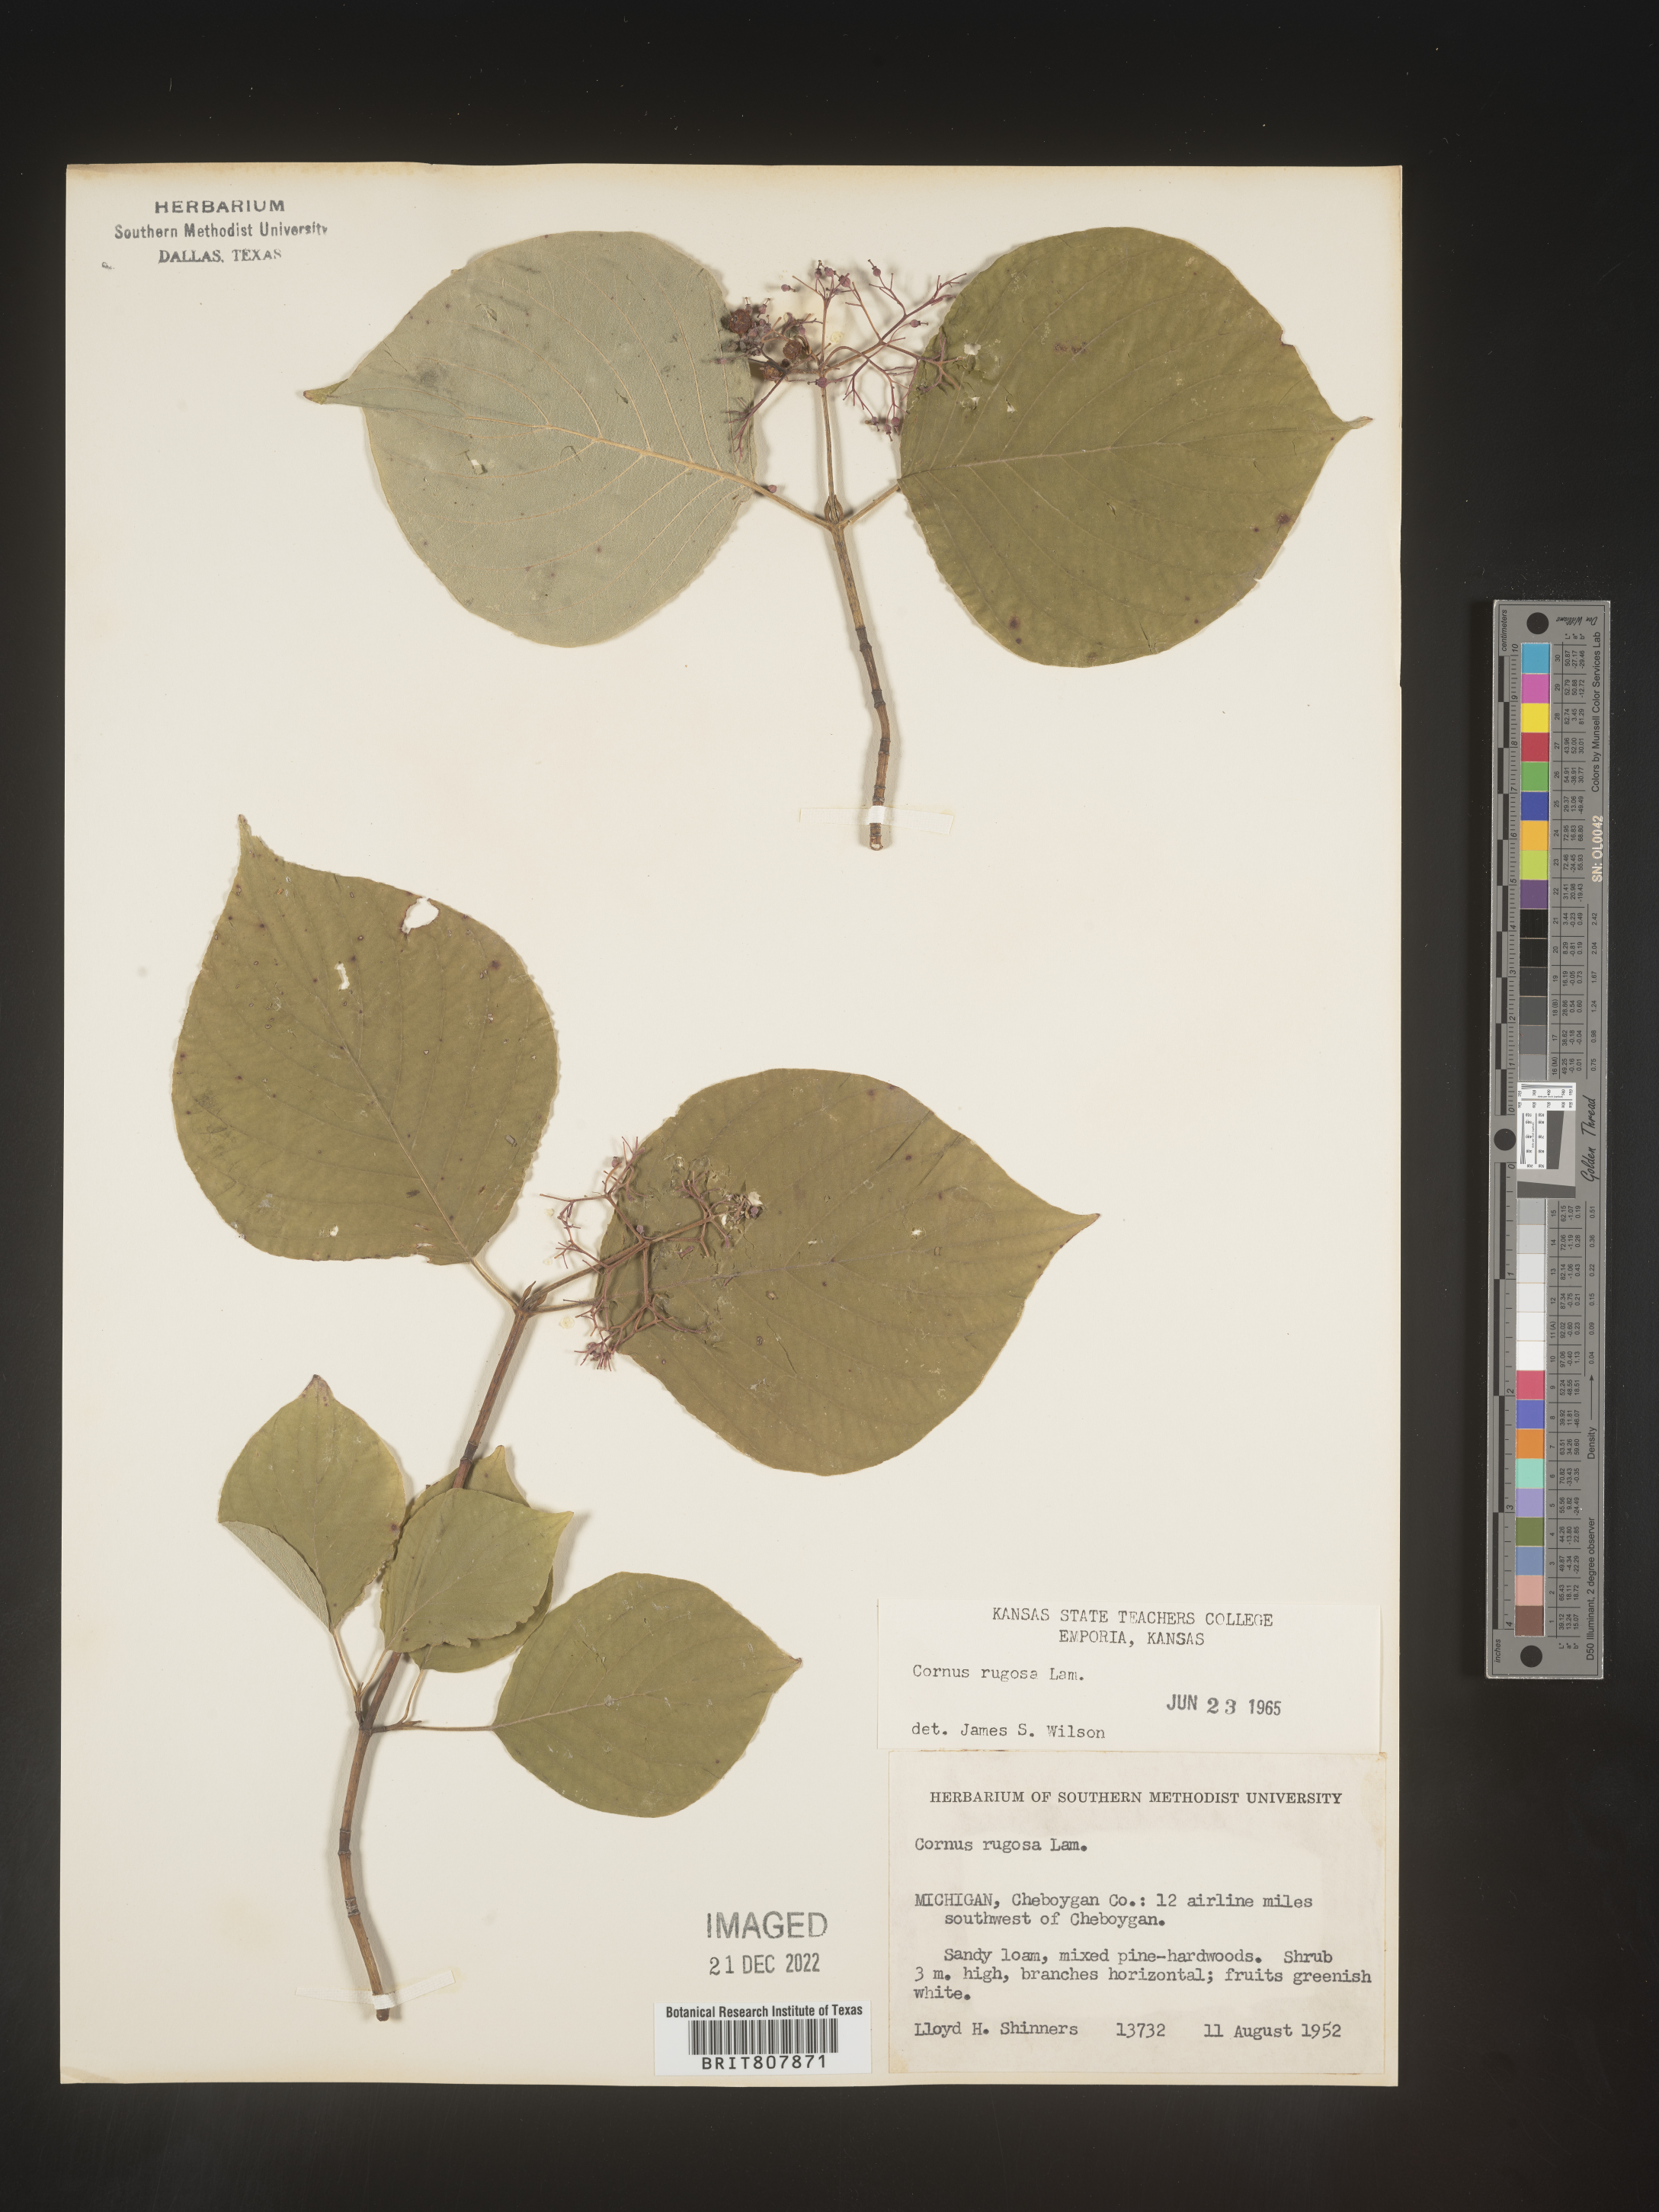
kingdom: Plantae
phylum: Tracheophyta
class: Magnoliopsida
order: Cornales
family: Cornaceae
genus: Cornus
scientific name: Cornus rugosa
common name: Round-leaf dogwood
